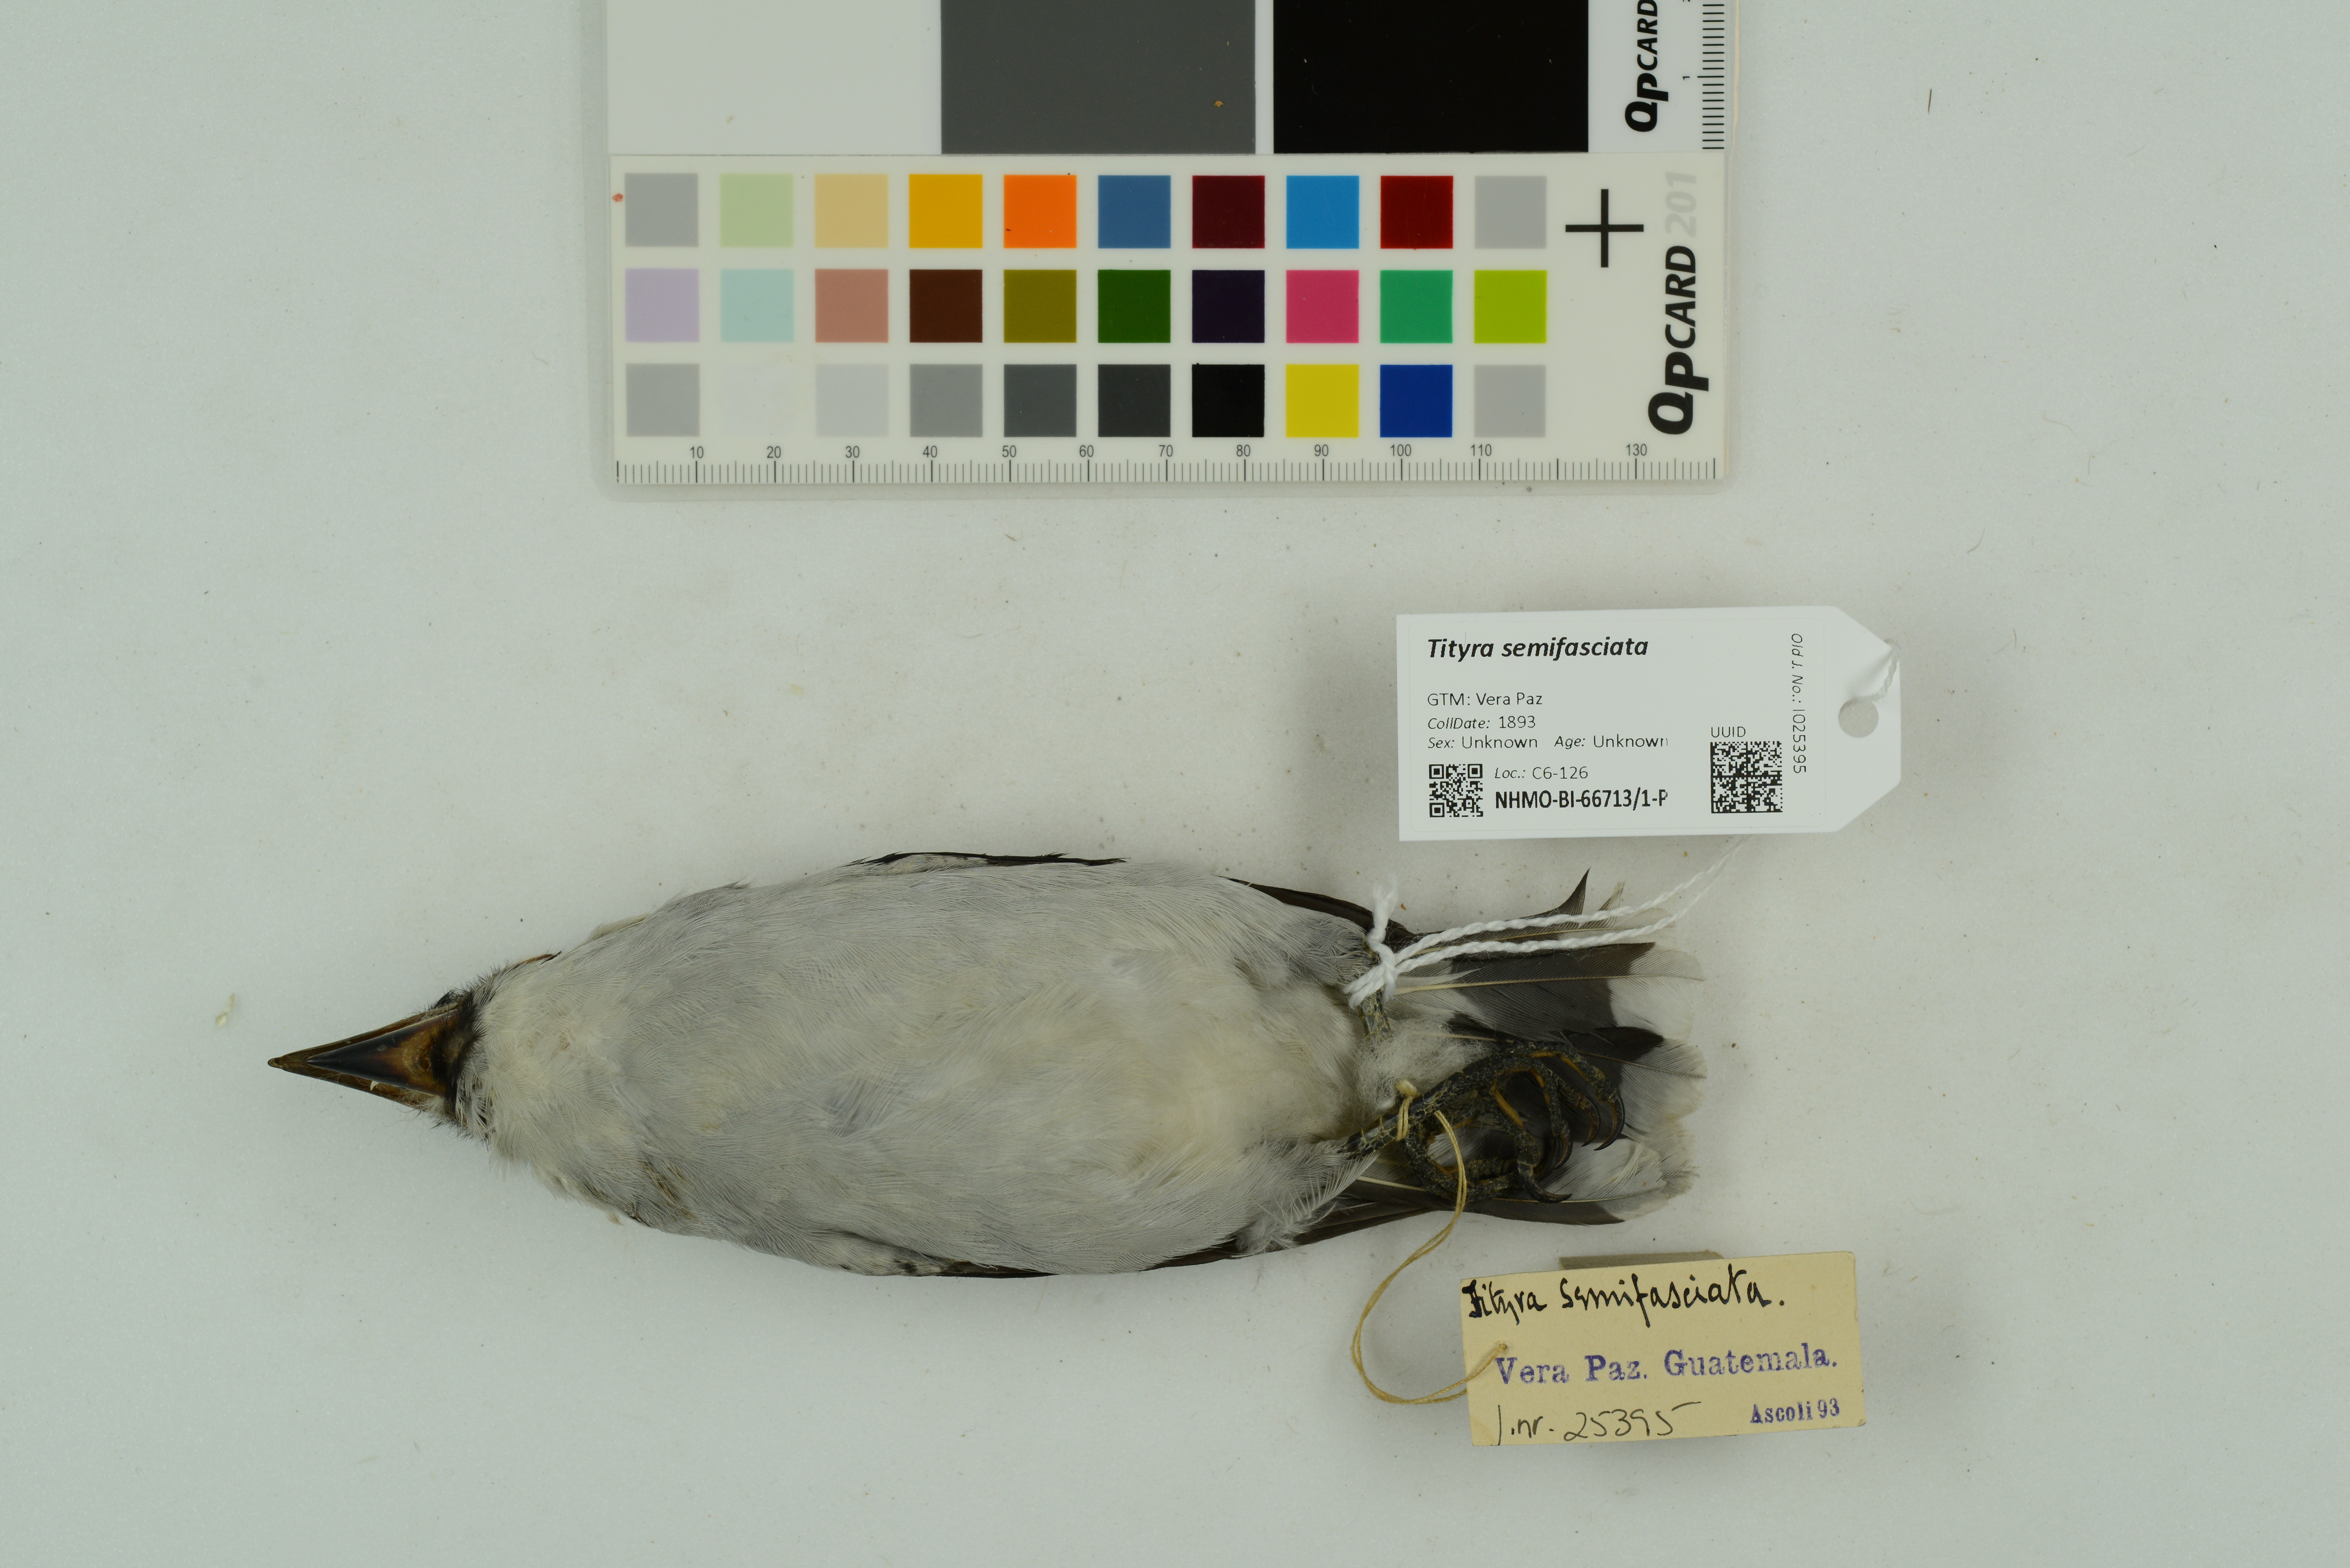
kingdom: Animalia
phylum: Chordata
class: Aves
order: Passeriformes
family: Cotingidae
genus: Tityra
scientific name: Tityra semifasciata
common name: Masked tityra
